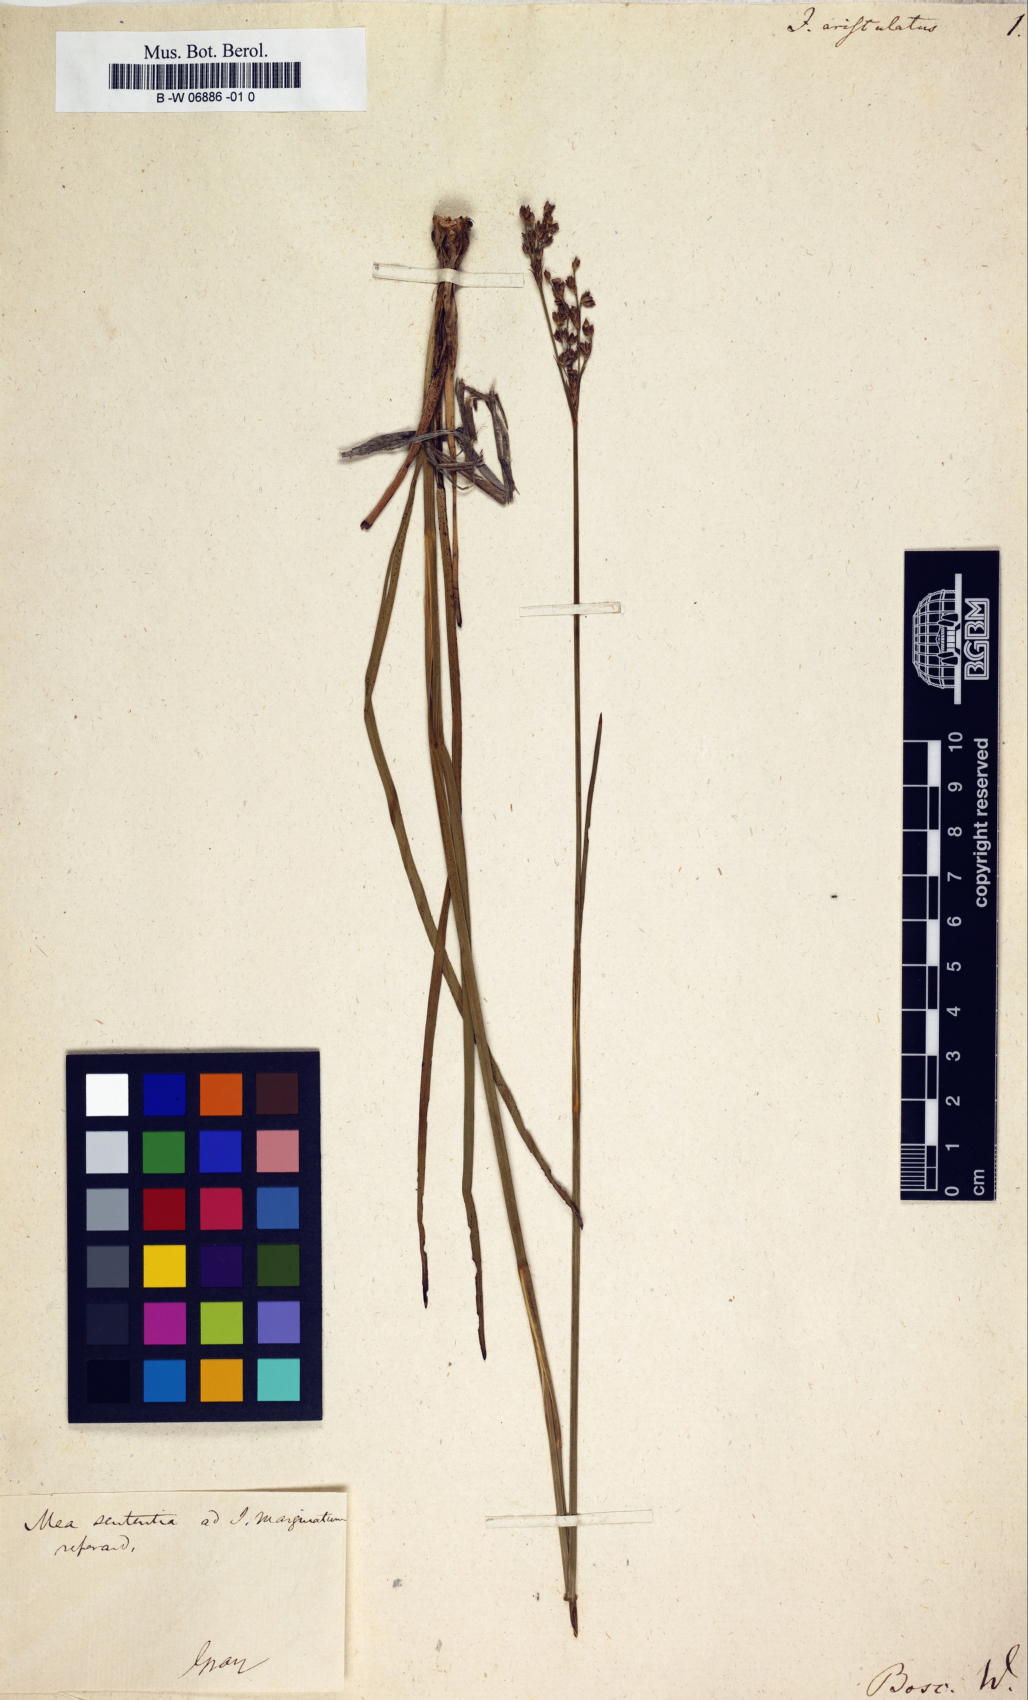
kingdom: Plantae
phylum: Tracheophyta
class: Liliopsida
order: Poales
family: Juncaceae
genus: Juncus
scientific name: Juncus aristatus
